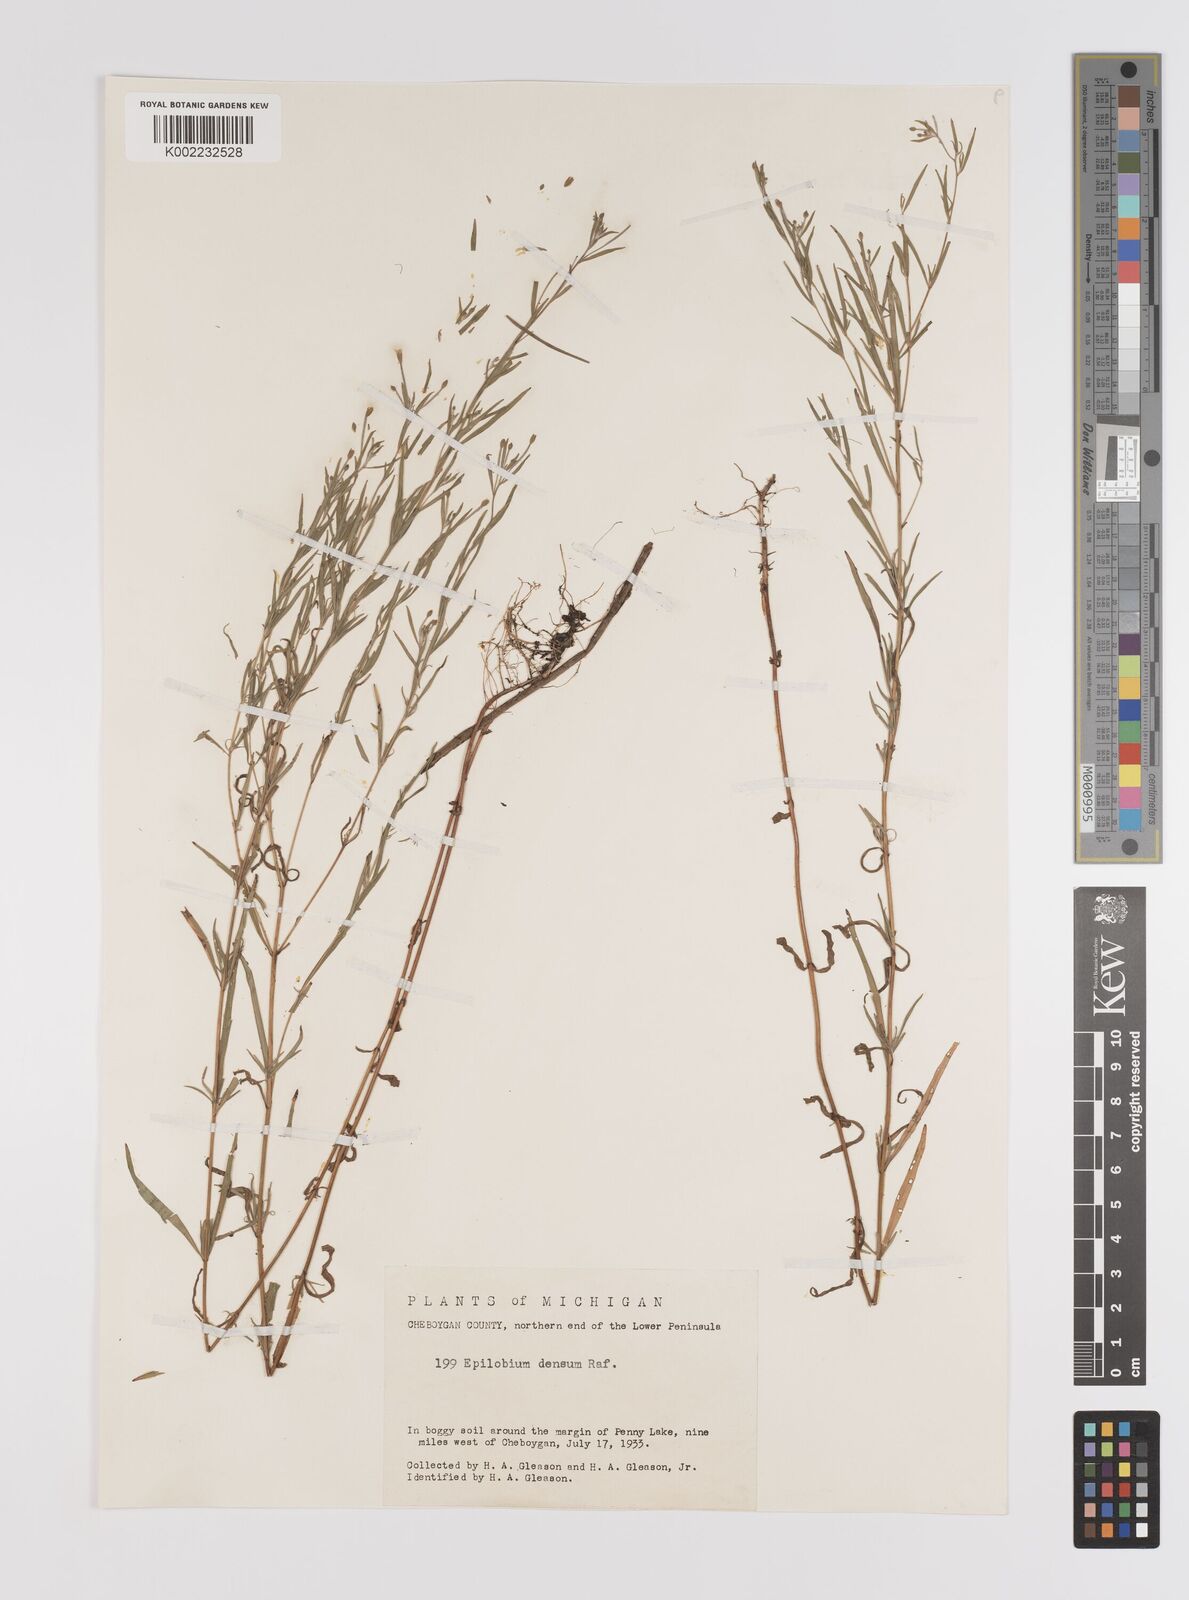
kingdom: Plantae
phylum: Tracheophyta
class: Magnoliopsida
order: Myrtales
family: Onagraceae
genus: Epilobium
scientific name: Epilobium
